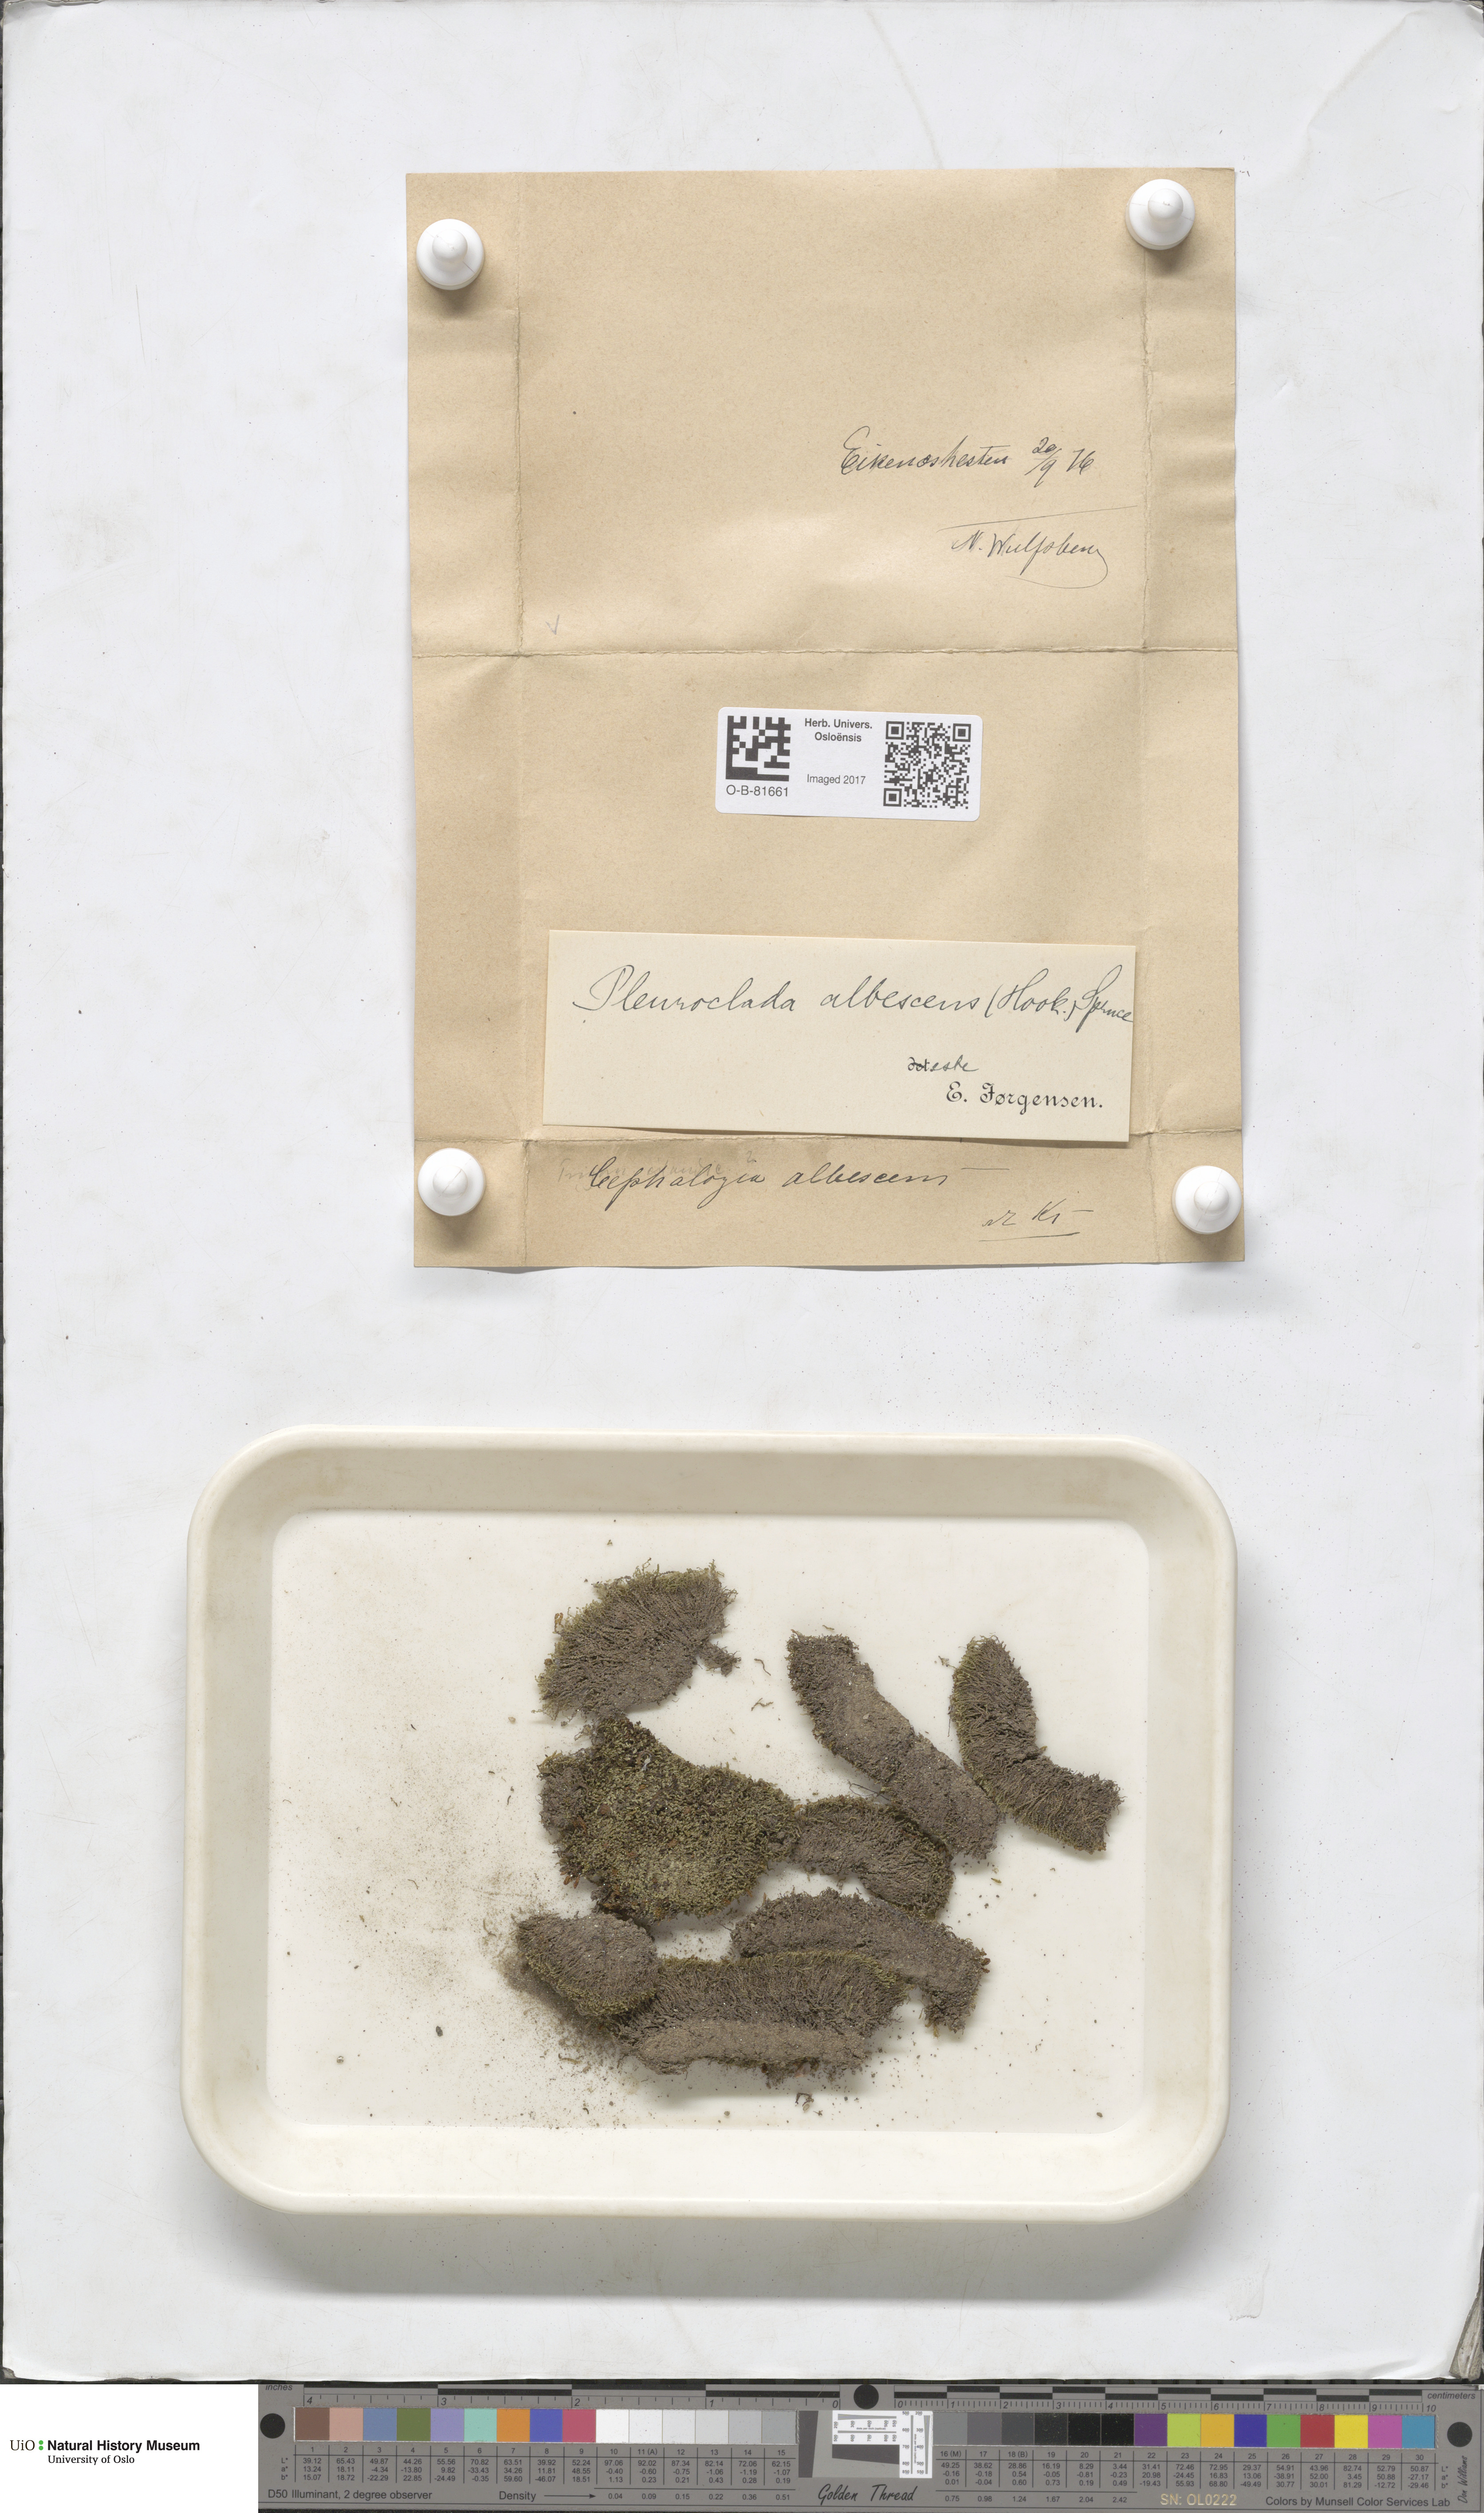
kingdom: Plantae
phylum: Marchantiophyta
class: Jungermanniopsida
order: Jungermanniales
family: Cephaloziaceae
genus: Fuscocephaloziopsis
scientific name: Fuscocephaloziopsis albescens
